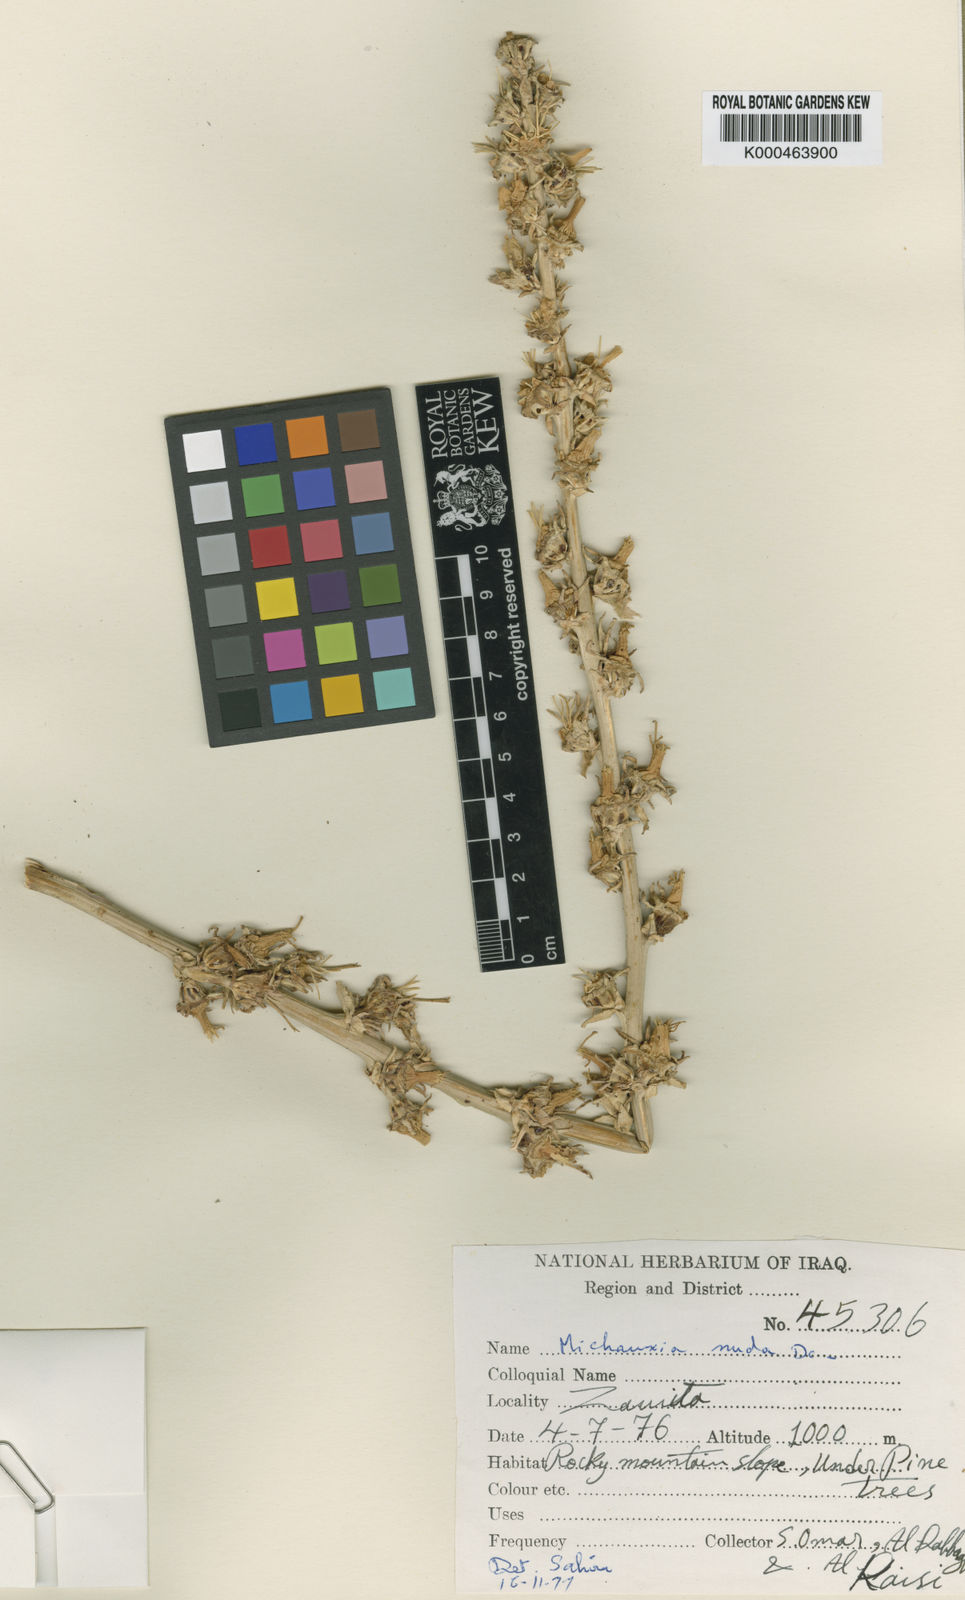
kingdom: Plantae
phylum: Tracheophyta
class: Magnoliopsida
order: Asterales
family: Campanulaceae
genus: Michauxia
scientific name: Michauxia nuda
